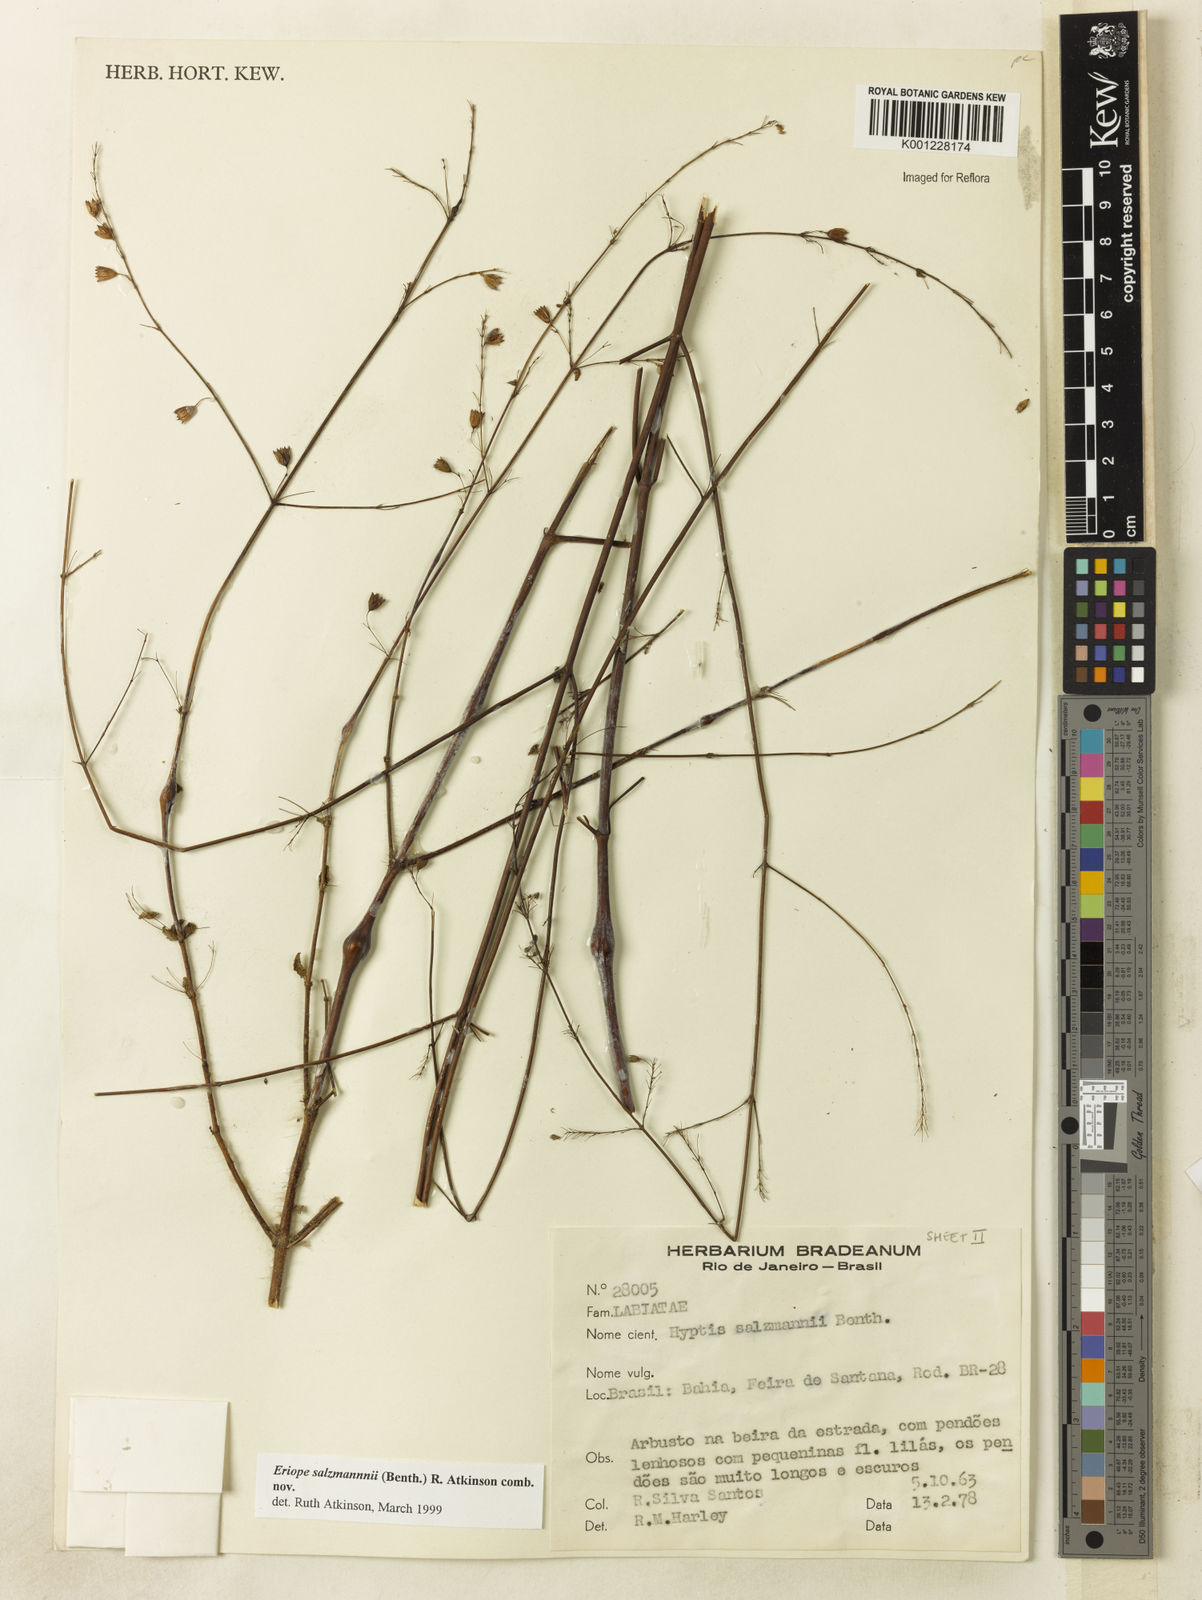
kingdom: Plantae
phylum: Tracheophyta
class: Magnoliopsida
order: Lamiales
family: Lamiaceae
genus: Hypenia
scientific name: Hypenia salzmannii
